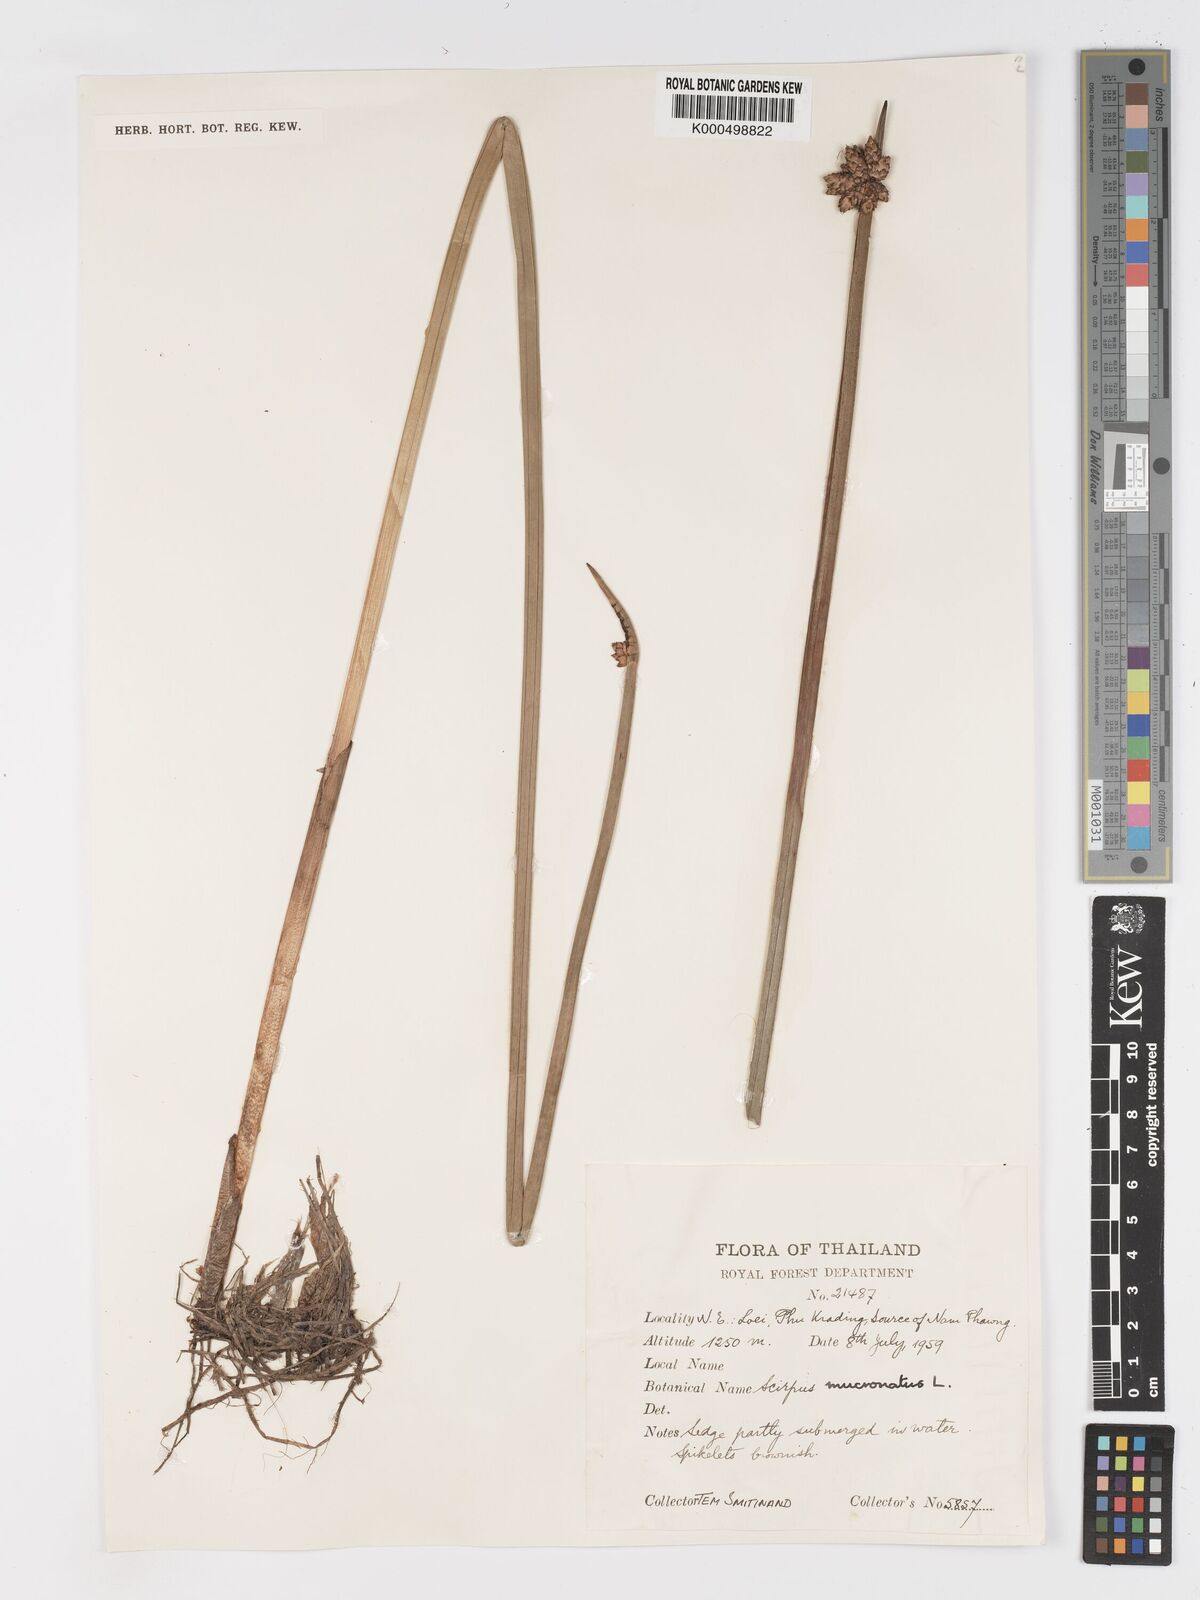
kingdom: Plantae
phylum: Tracheophyta
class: Liliopsida
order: Poales
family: Cyperaceae
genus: Schoenoplectiella
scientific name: Schoenoplectiella mucronata
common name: Bog bulrush
